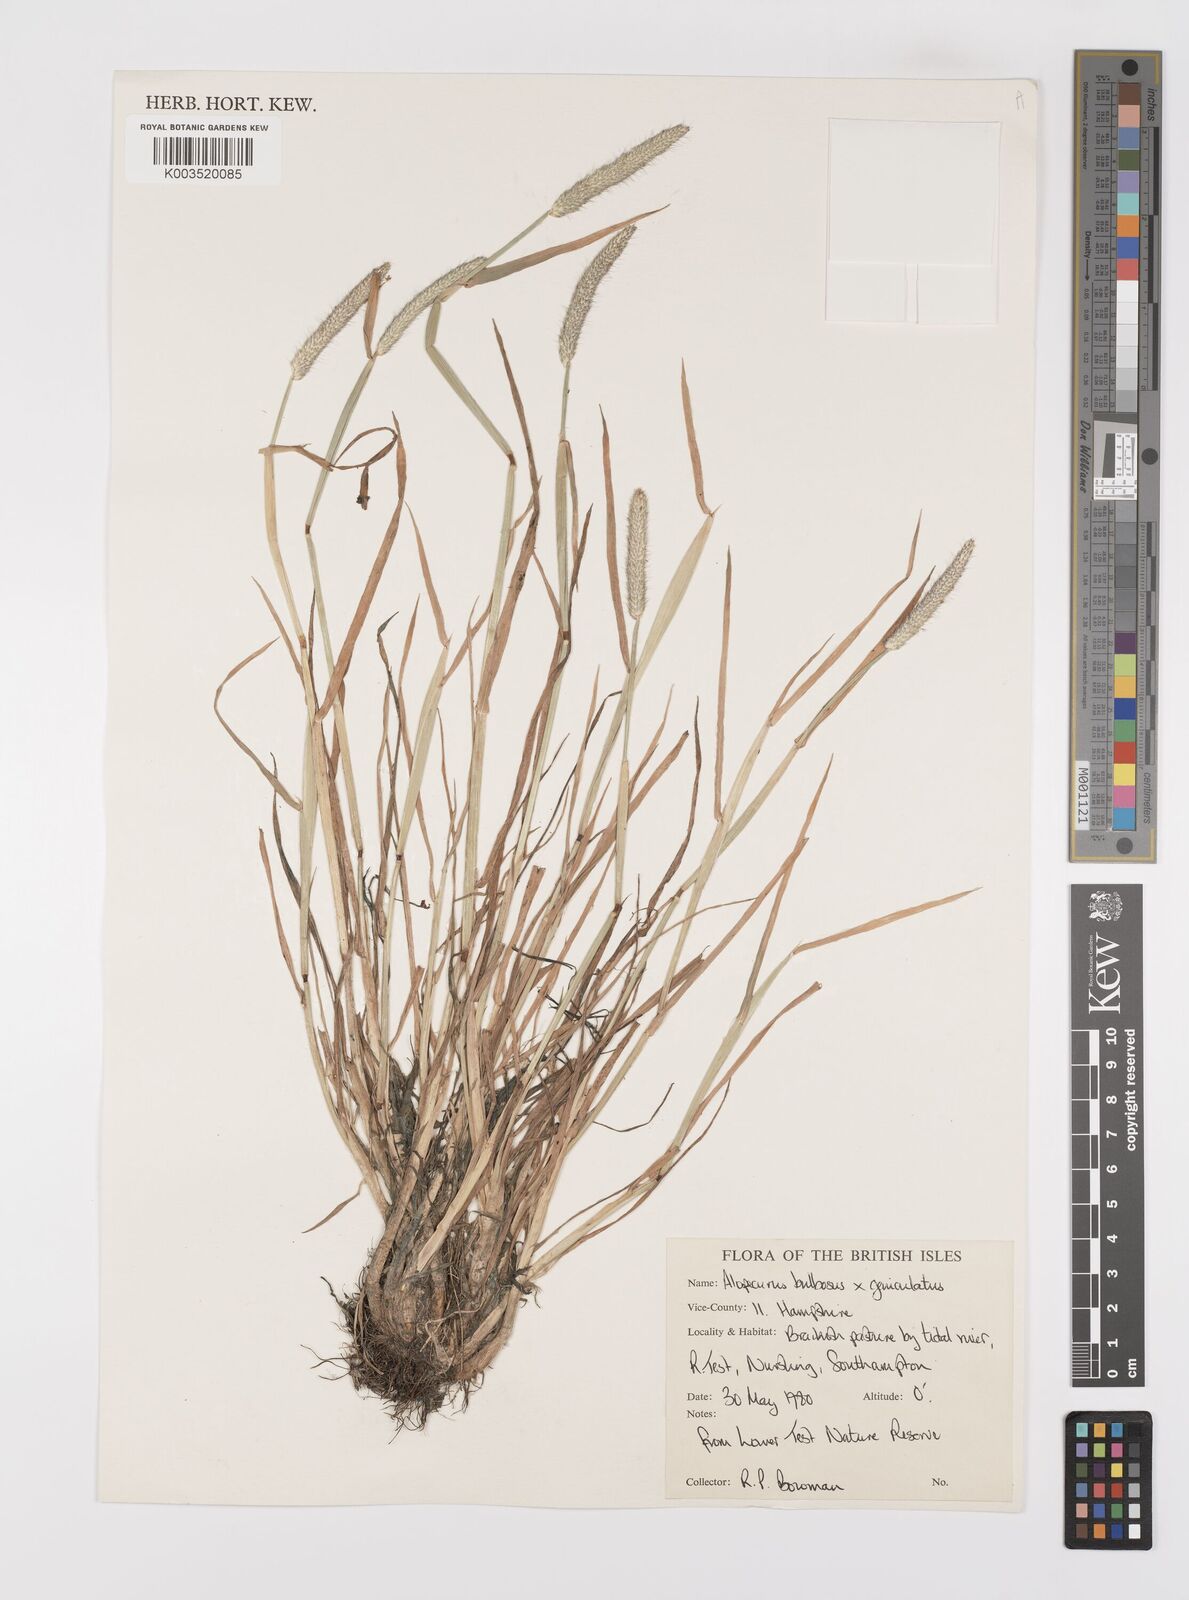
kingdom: Plantae
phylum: Tracheophyta
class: Liliopsida
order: Poales
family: Poaceae
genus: Alopecurus
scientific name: Alopecurus
